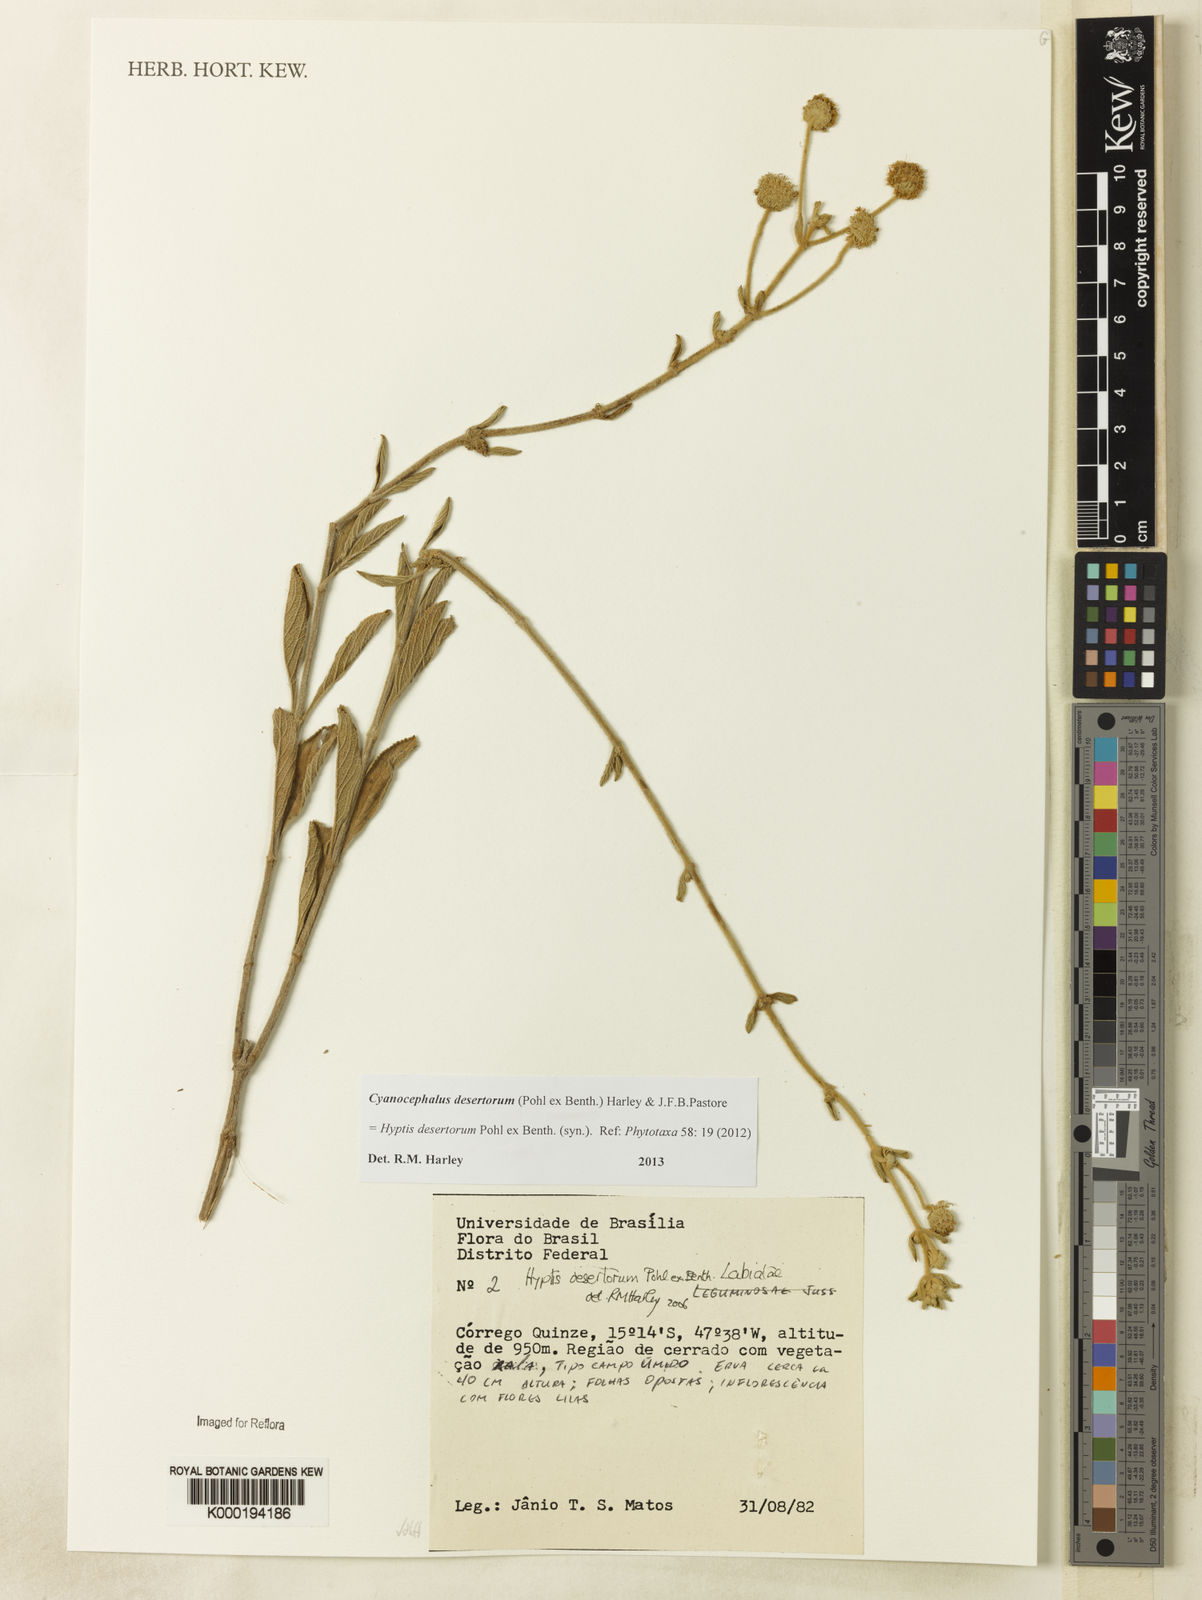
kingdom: Plantae
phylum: Tracheophyta
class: Magnoliopsida
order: Lamiales
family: Lamiaceae
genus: Cyanocephalus
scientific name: Cyanocephalus desertorum
